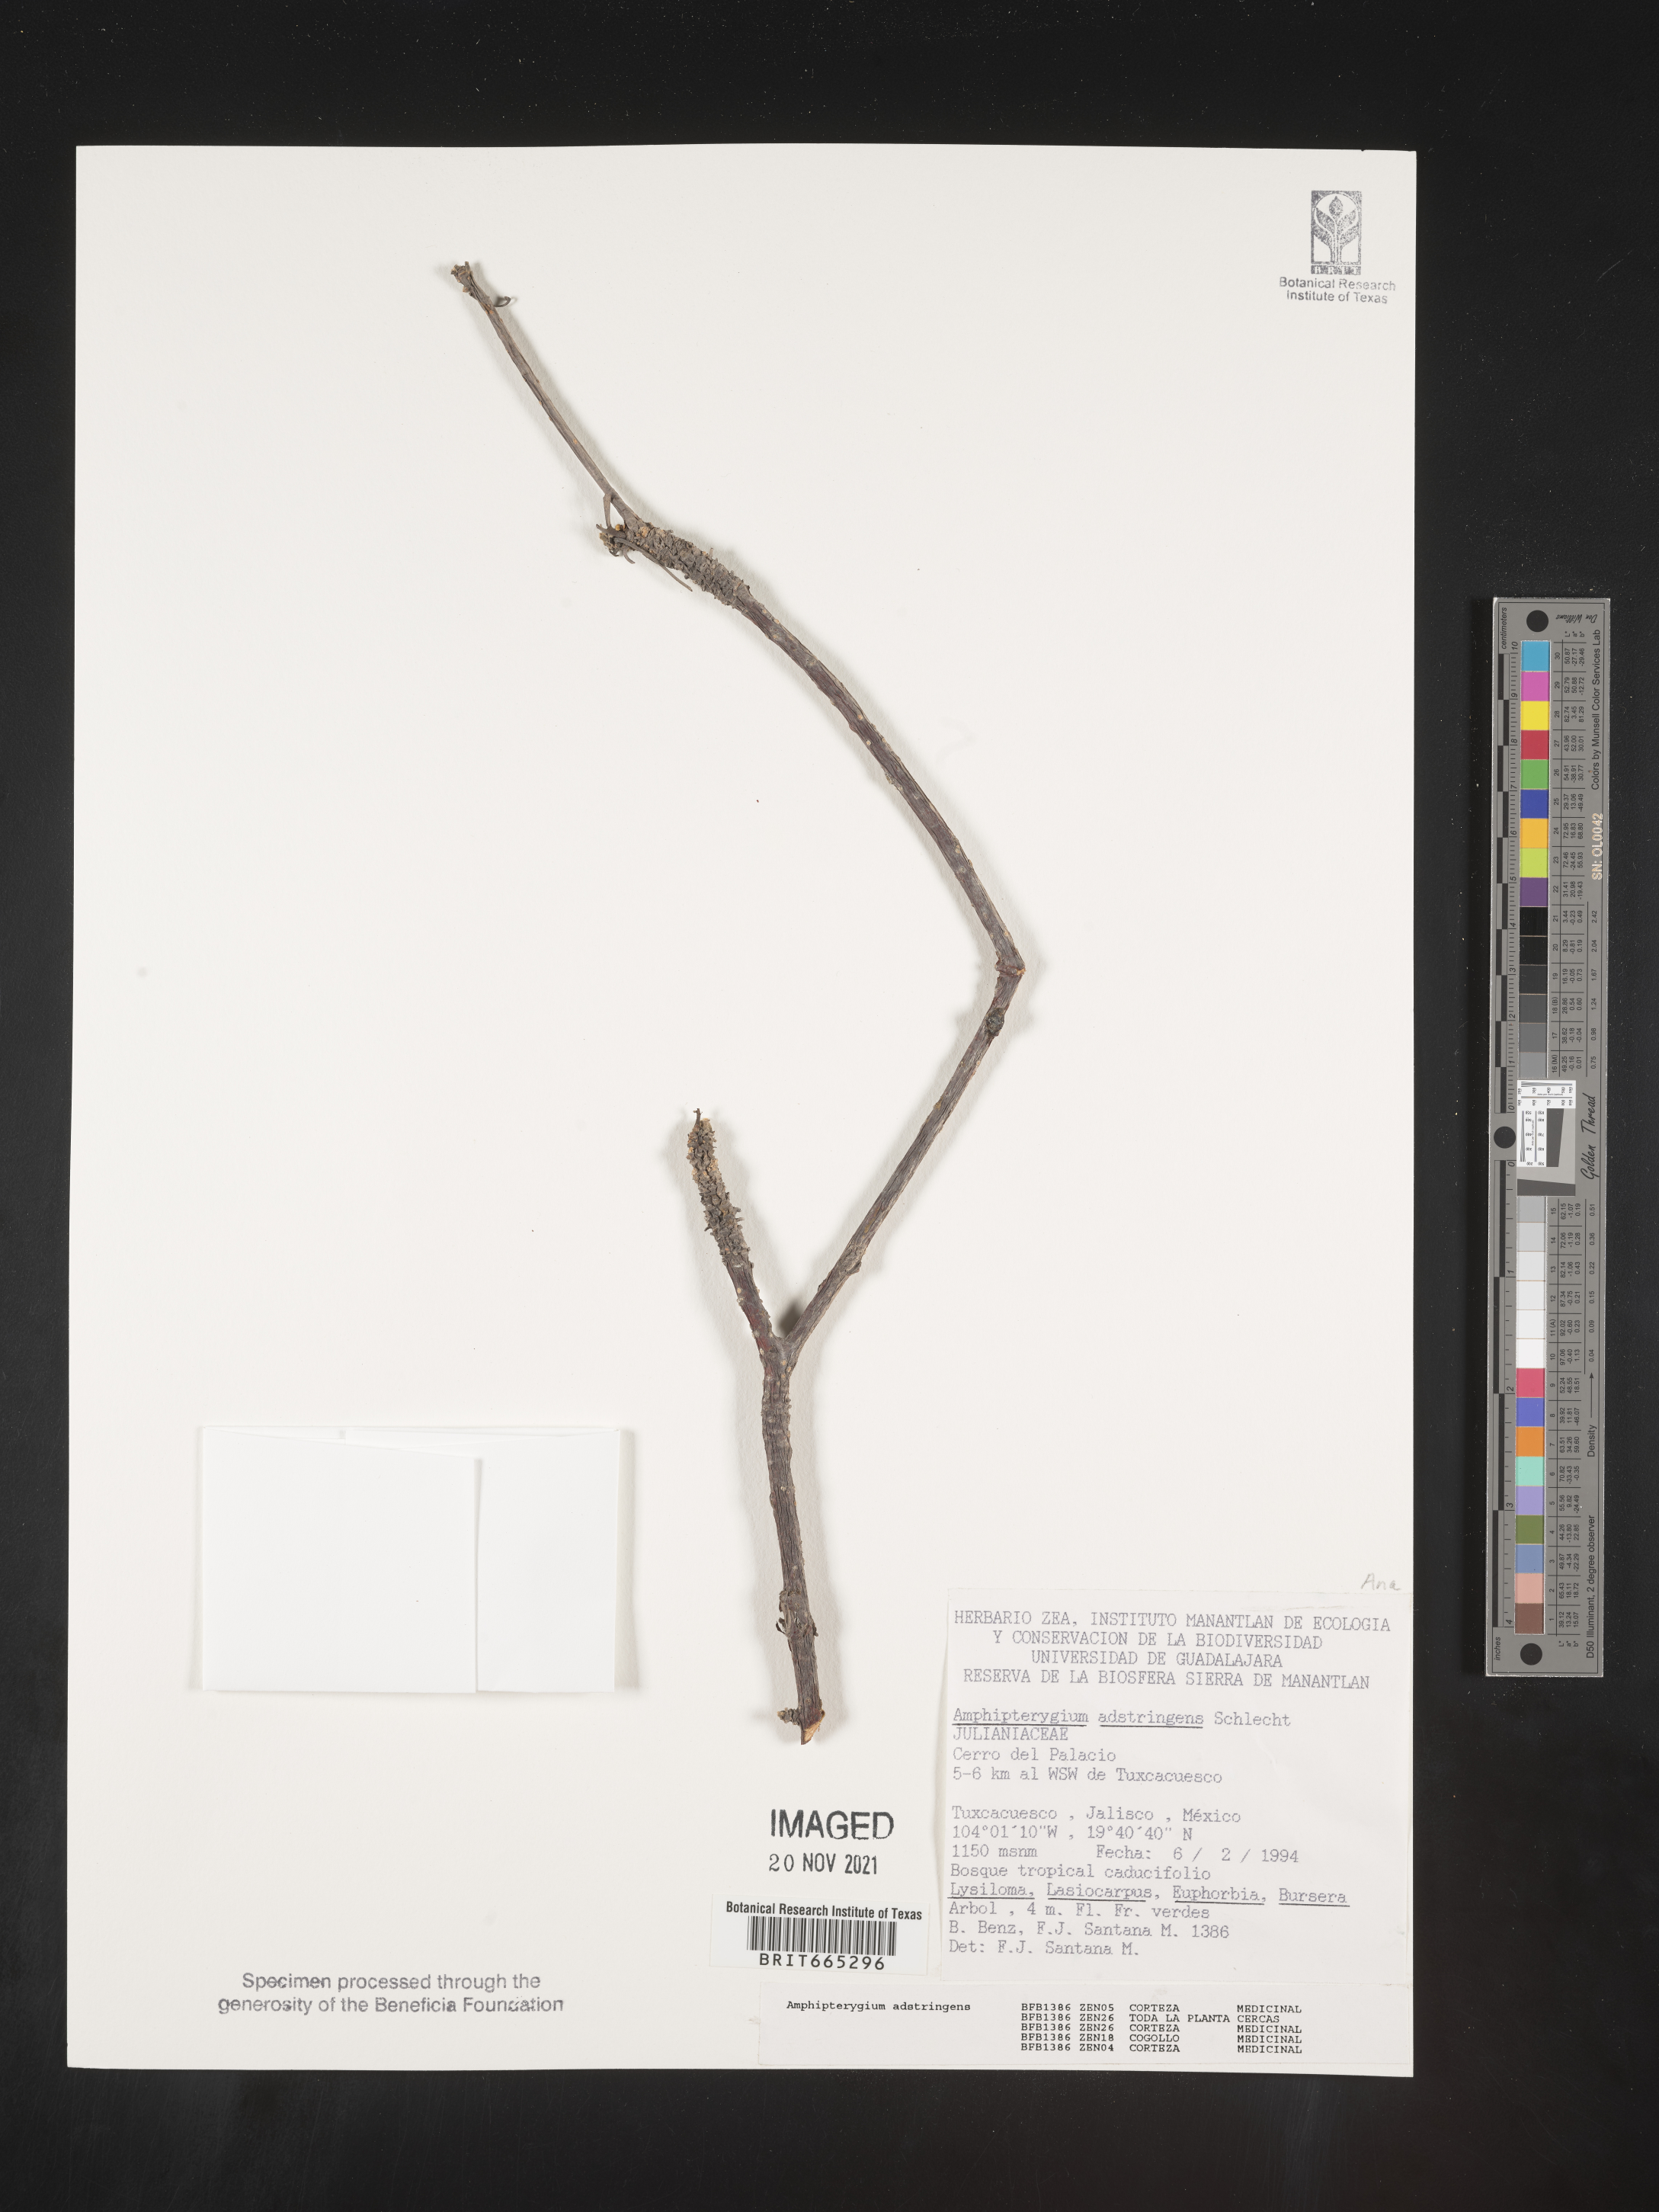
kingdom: Plantae
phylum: Tracheophyta
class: Magnoliopsida
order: Sapindales
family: Anacardiaceae
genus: Amphipterygium
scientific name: Amphipterygium
